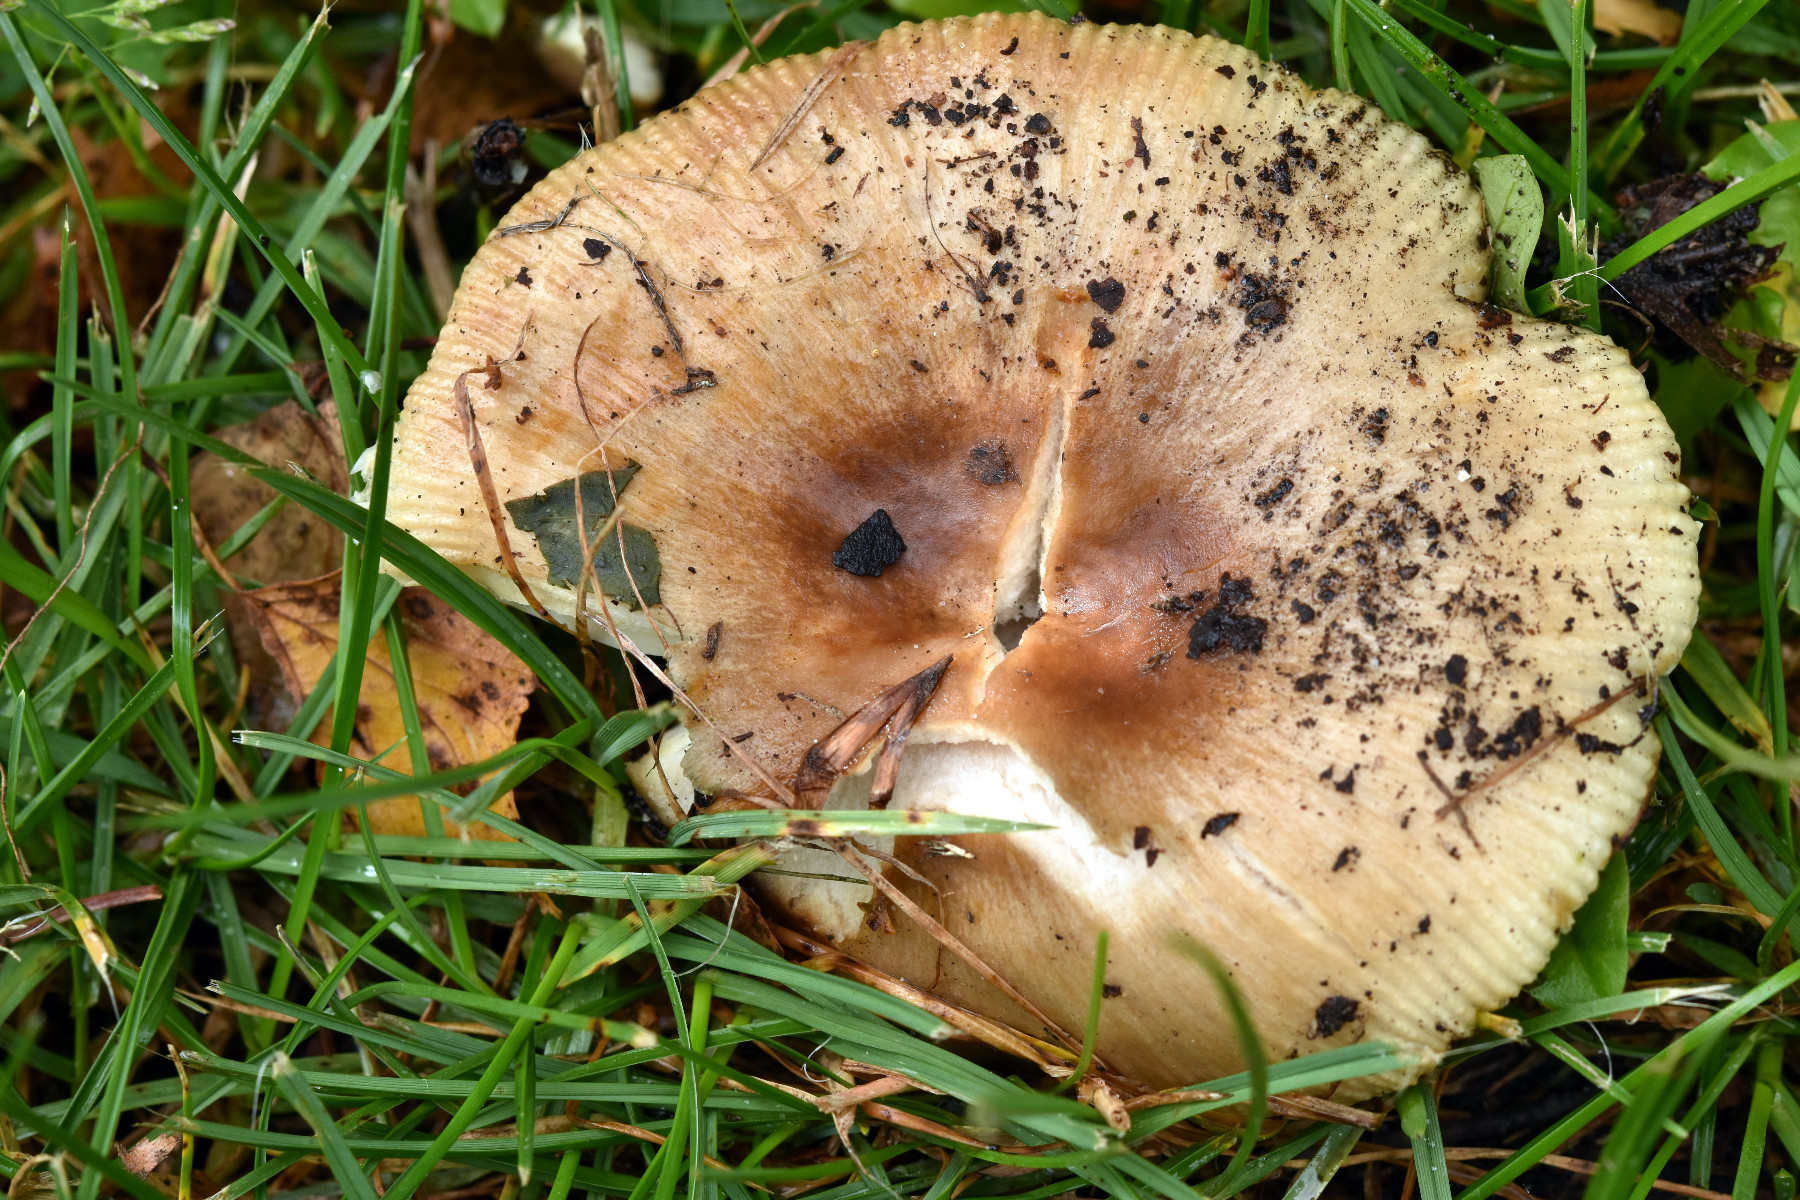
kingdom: Fungi
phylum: Basidiomycota
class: Agaricomycetes
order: Russulales
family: Russulaceae
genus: Russula
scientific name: Russula recondita
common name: mild kam-skørhat
